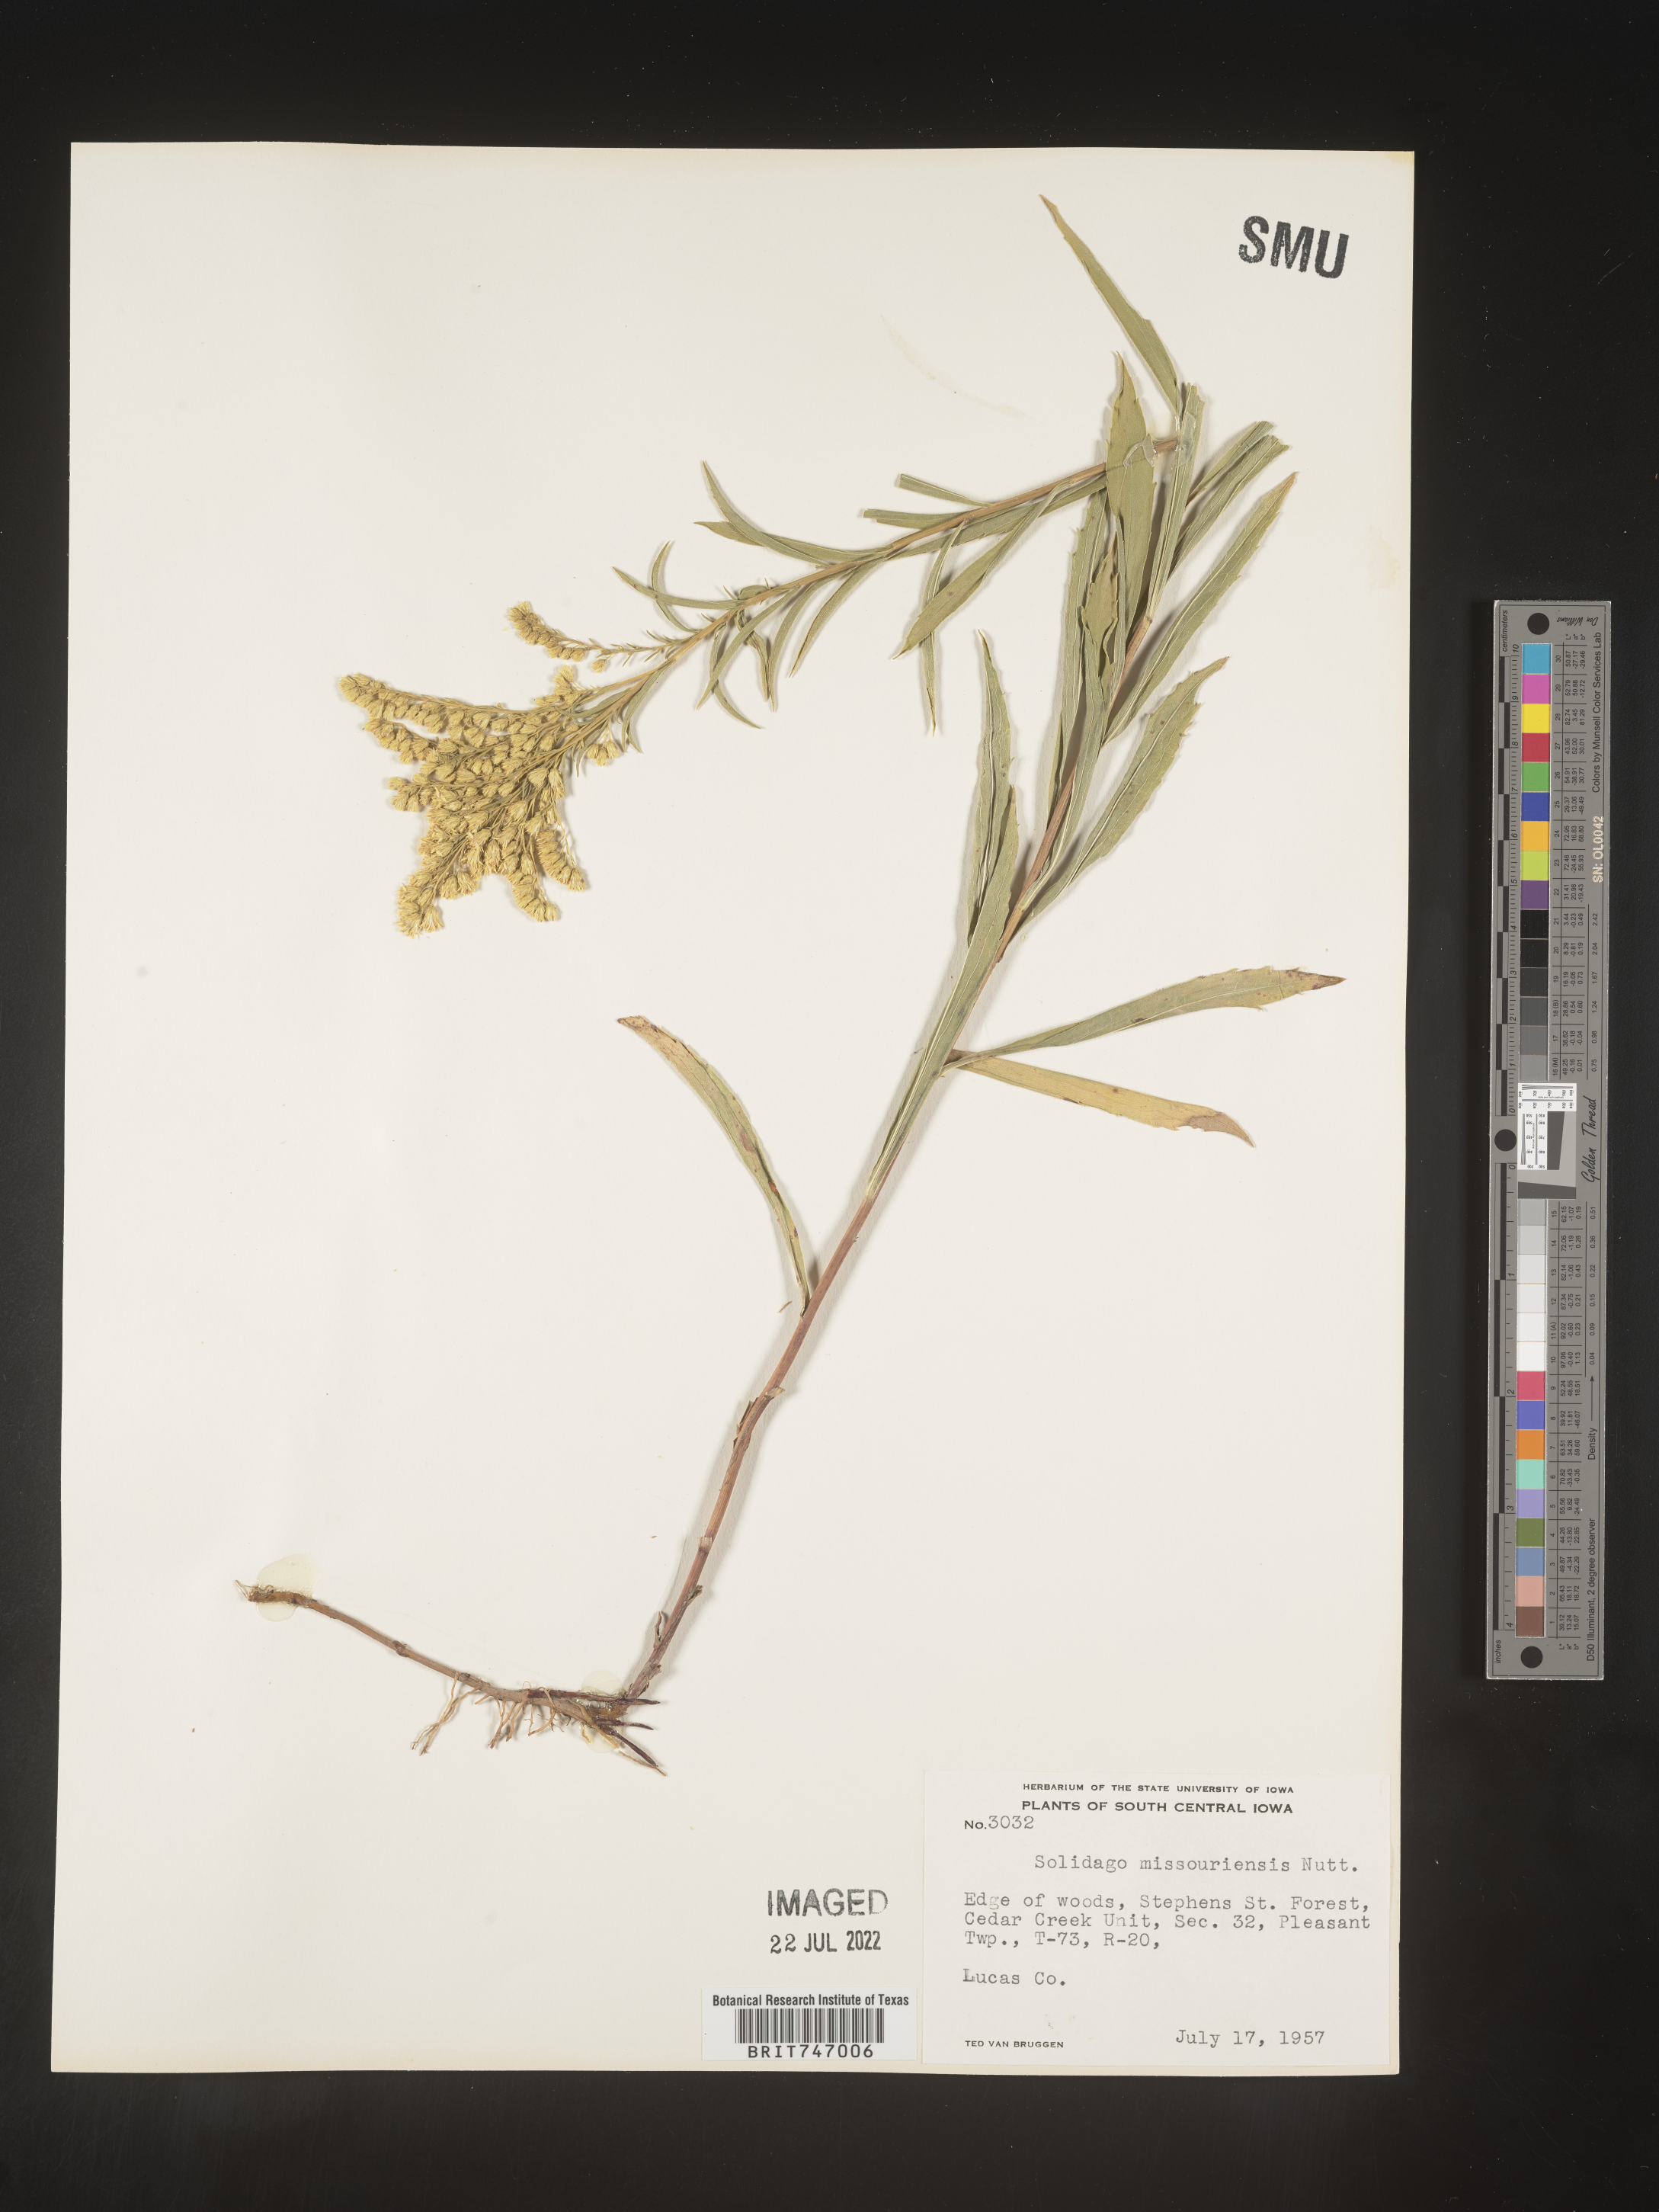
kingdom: Plantae
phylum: Tracheophyta
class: Magnoliopsida
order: Asterales
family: Asteraceae
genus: Solidago
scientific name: Solidago missouriensis
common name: Prairie goldenrod
